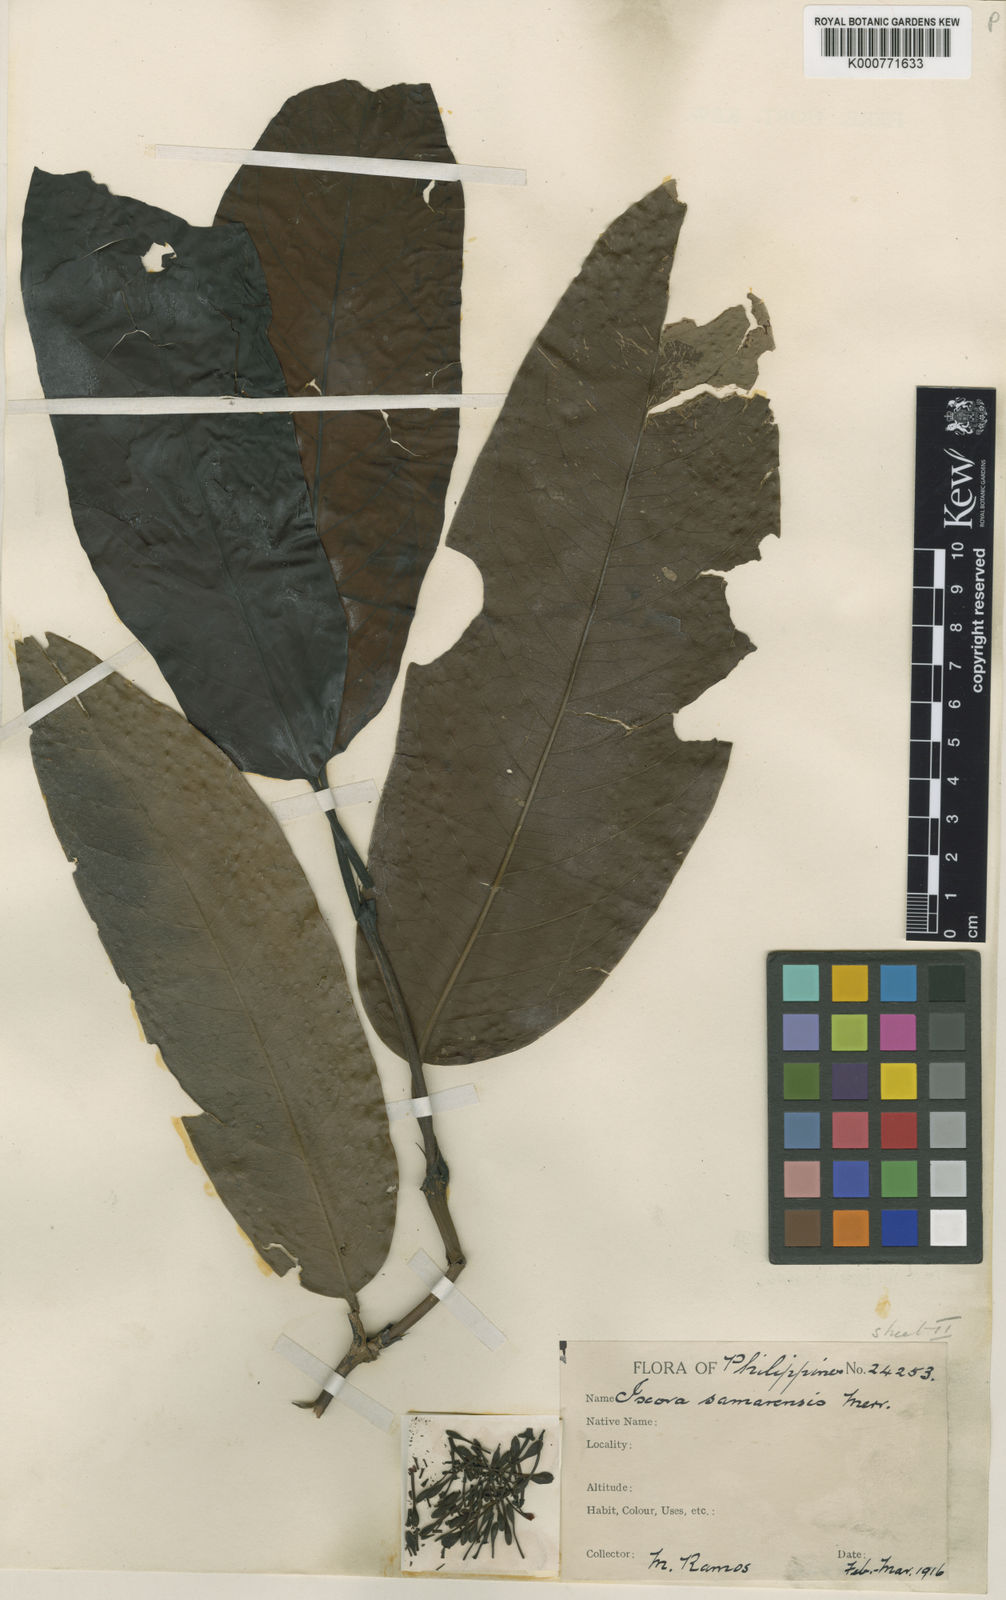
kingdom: Plantae
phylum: Tracheophyta
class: Magnoliopsida
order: Gentianales
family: Rubiaceae
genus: Ixora
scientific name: Ixora samarensis
